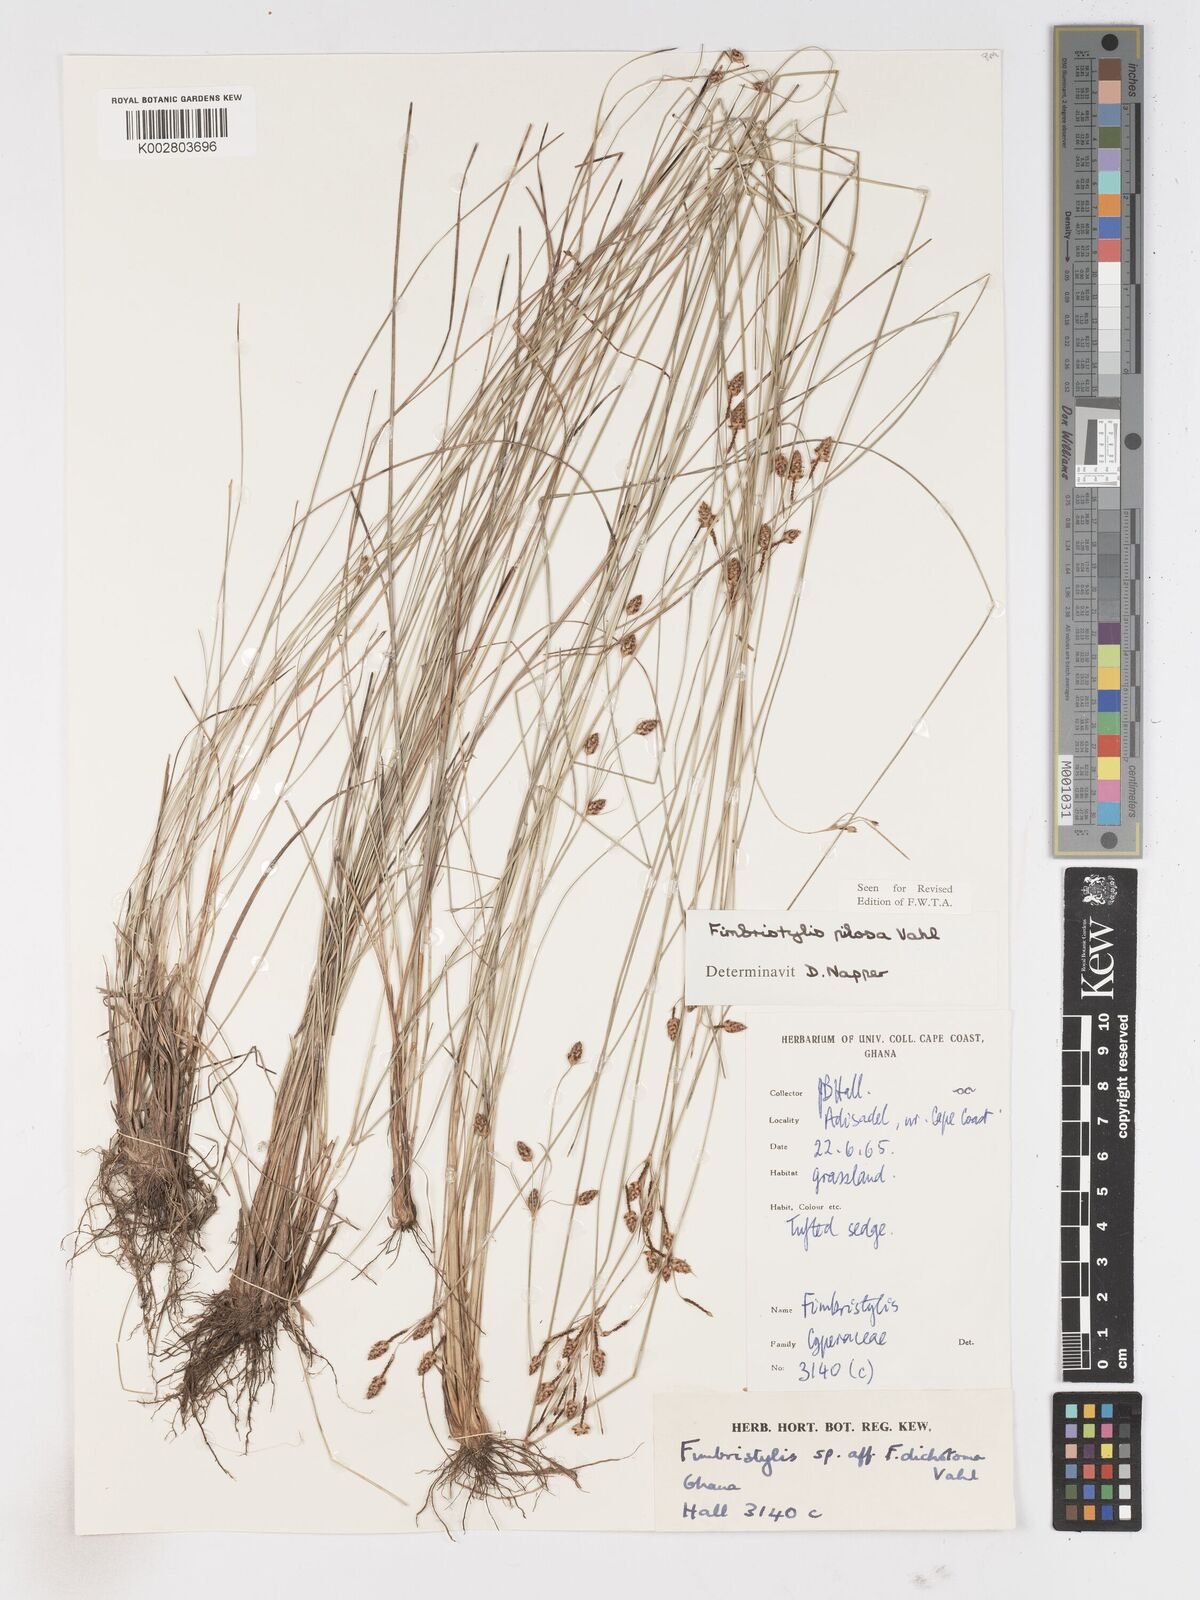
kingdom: Plantae
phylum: Tracheophyta
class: Liliopsida
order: Poales
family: Cyperaceae
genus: Fimbristylis
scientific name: Fimbristylis pilosa
